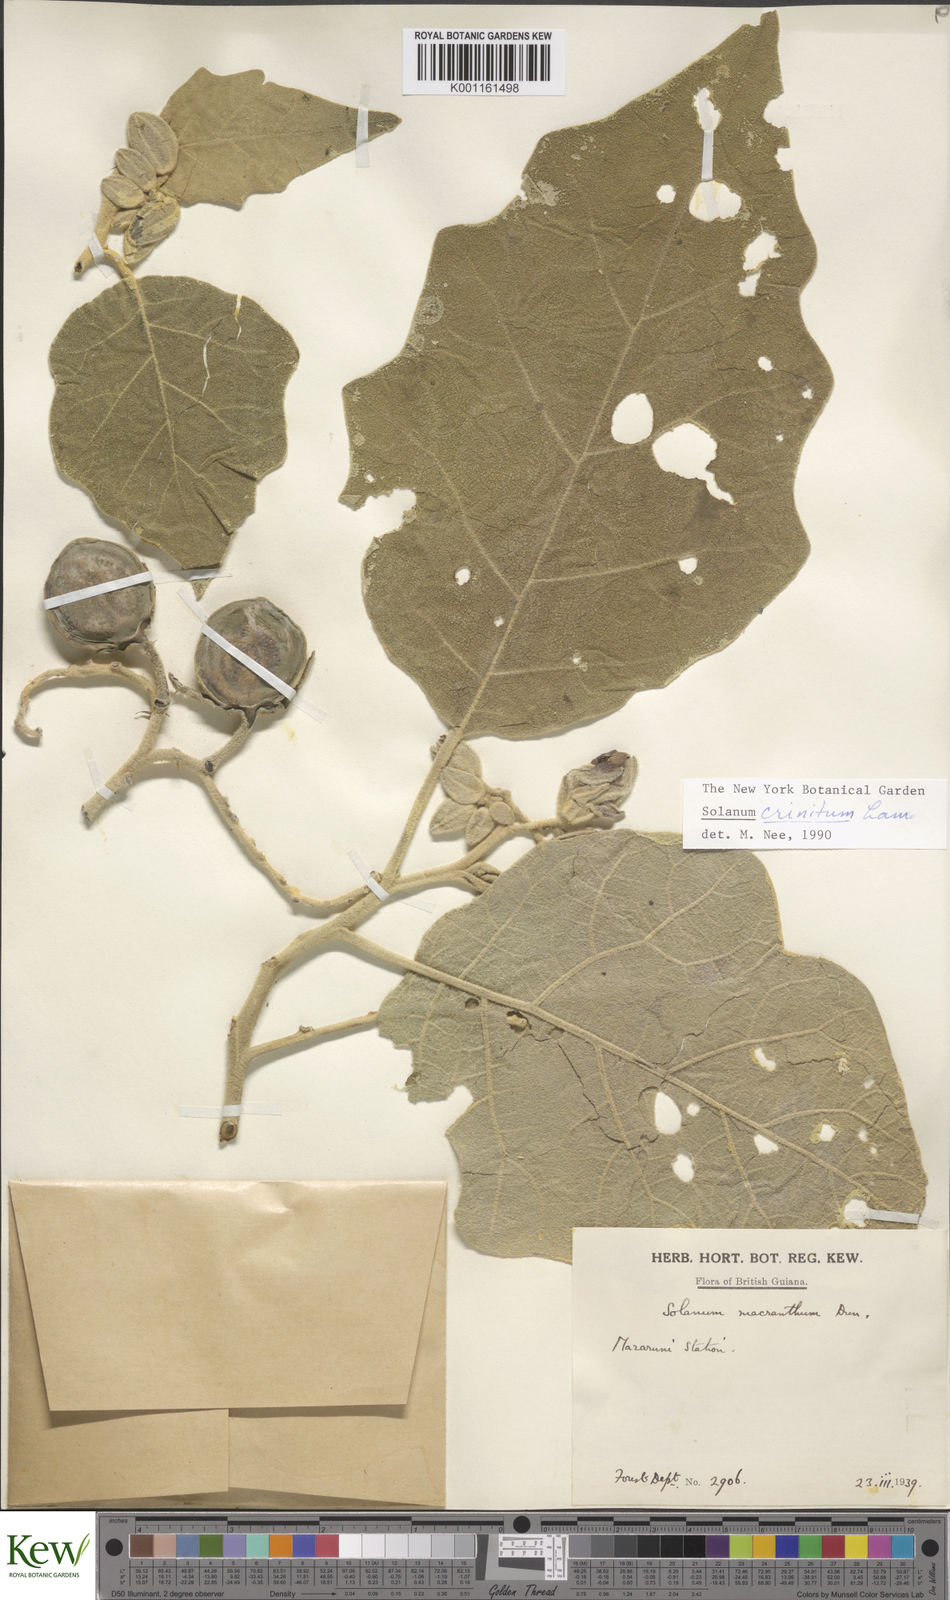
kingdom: Plantae
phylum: Tracheophyta
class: Magnoliopsida
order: Solanales
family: Solanaceae
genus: Solanum
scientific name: Solanum crinitum
